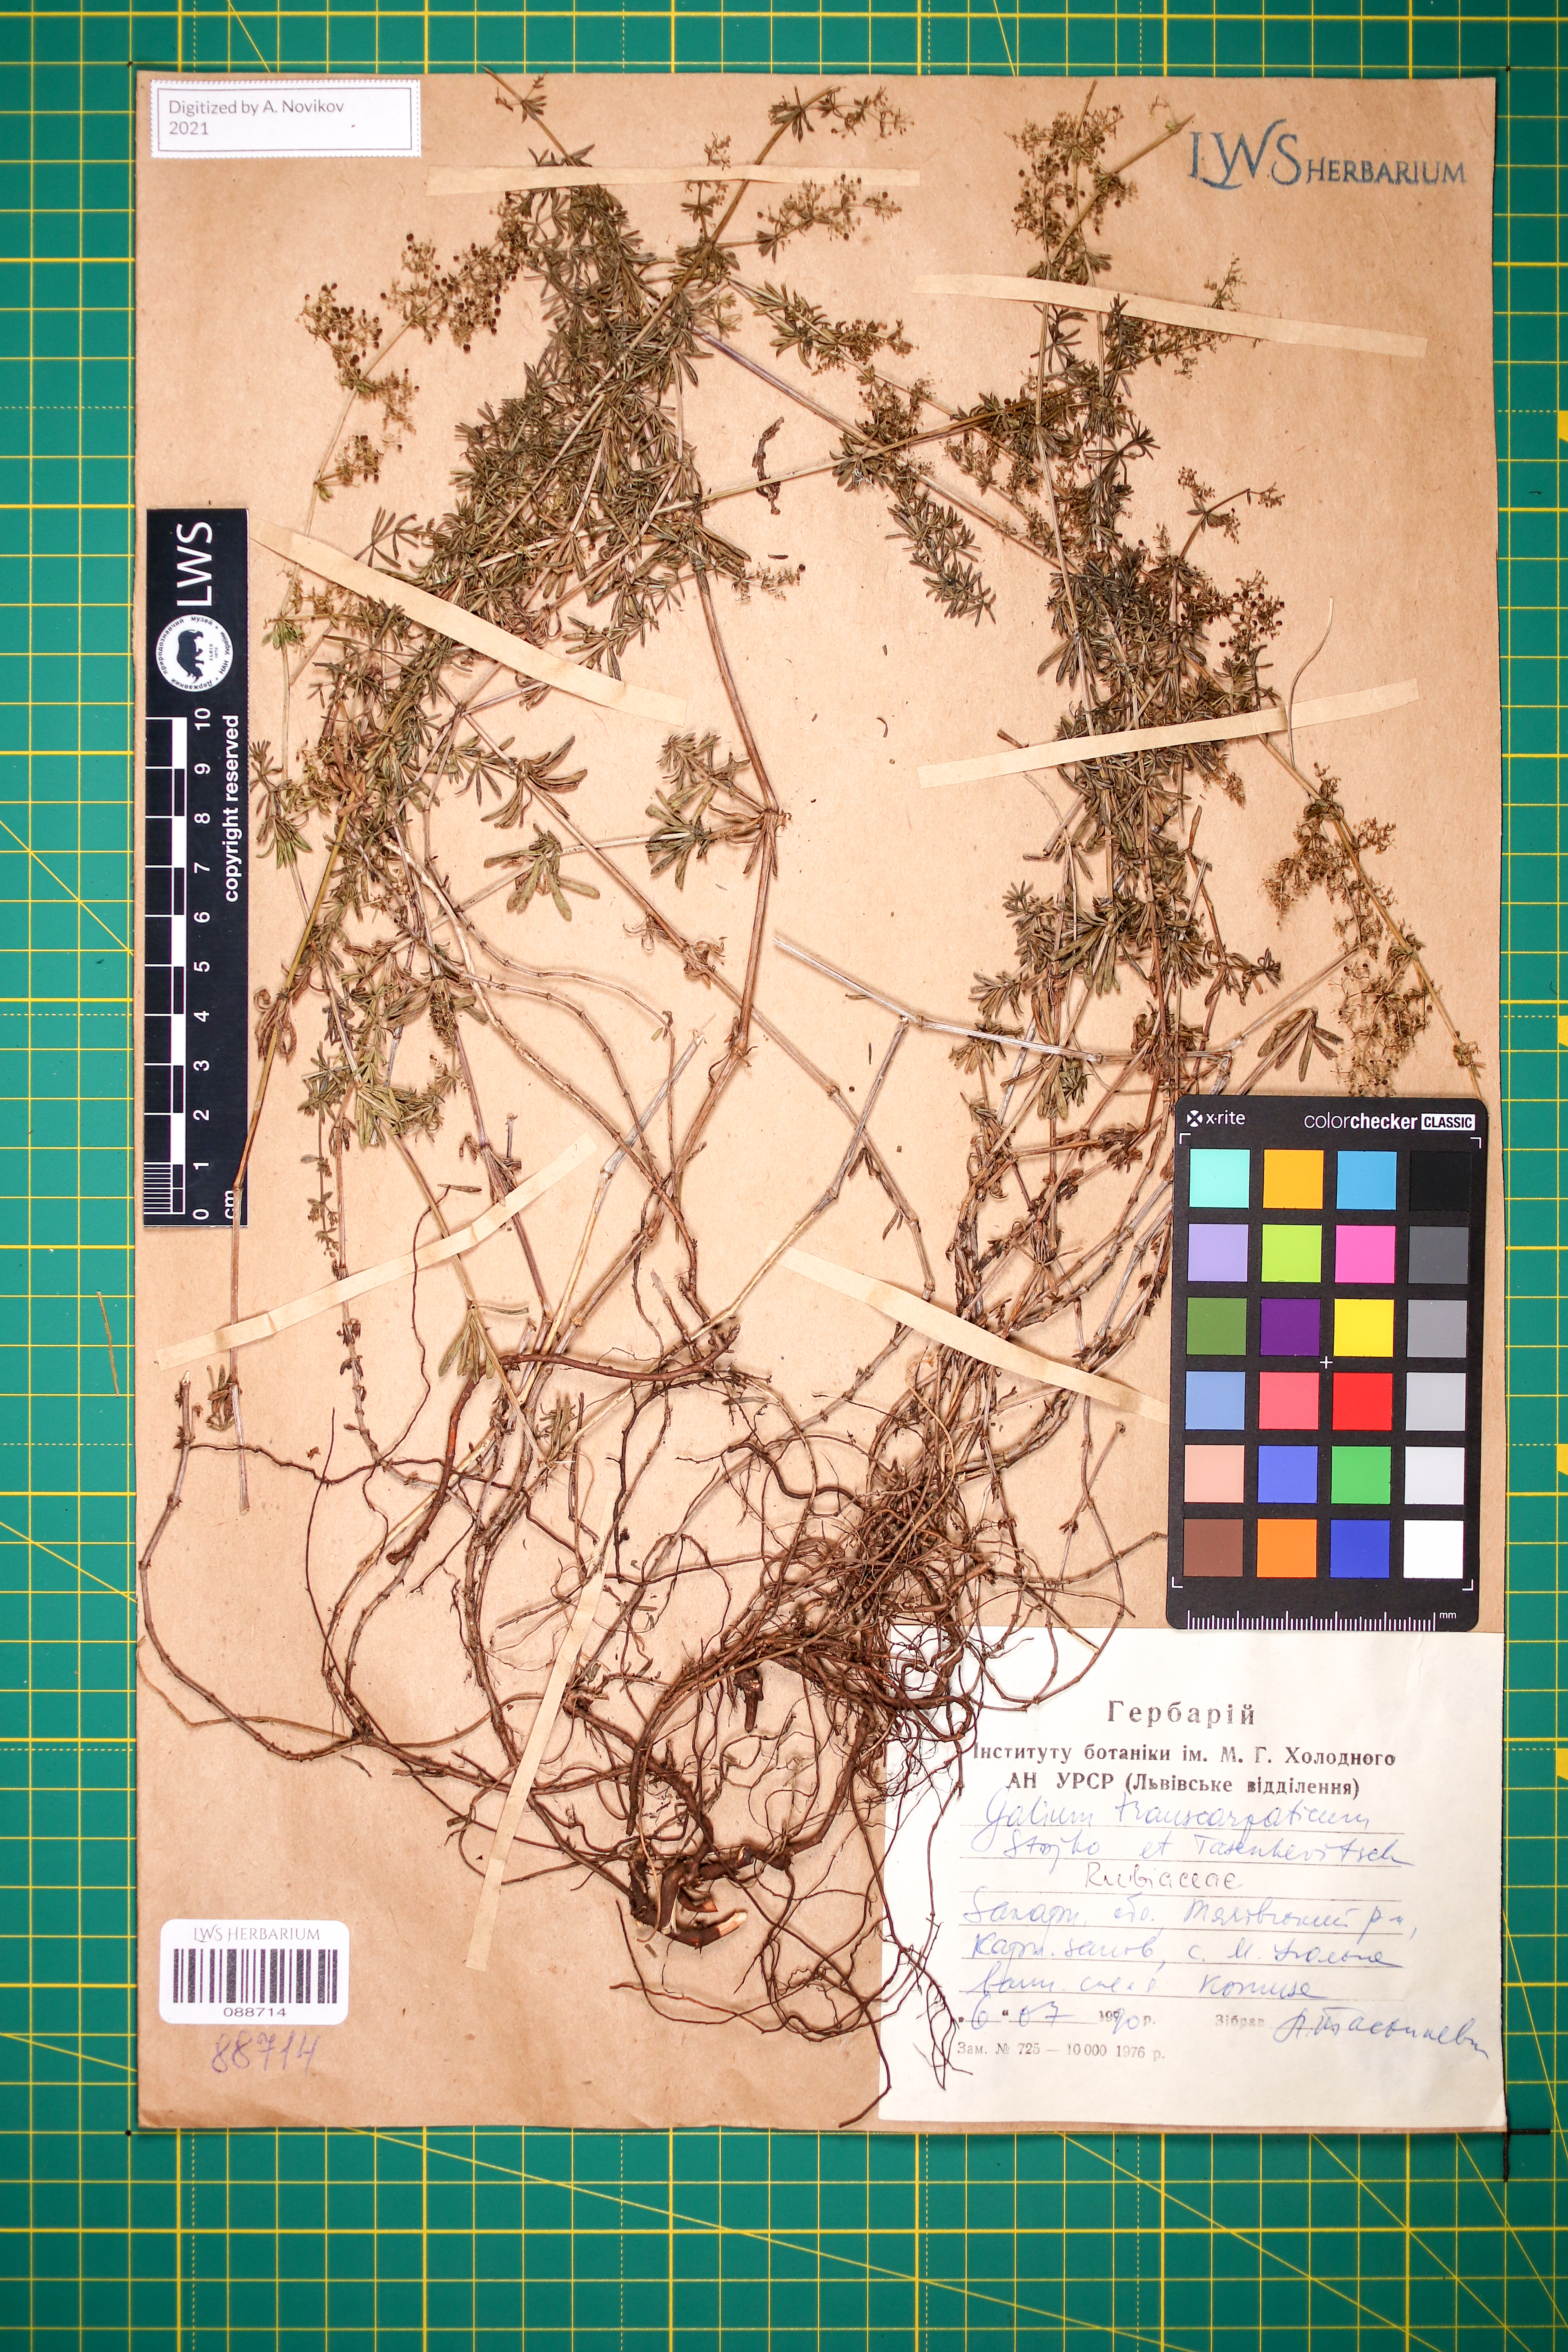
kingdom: Plantae
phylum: Tracheophyta
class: Magnoliopsida
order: Gentianales
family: Rubiaceae
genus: Galium
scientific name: Galium transcarpaticum
